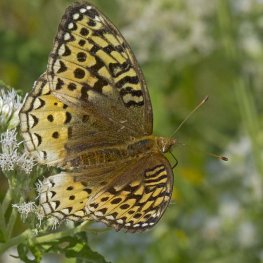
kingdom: Animalia
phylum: Arthropoda
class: Insecta
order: Lepidoptera
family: Nymphalidae
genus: Speyeria
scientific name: Speyeria cybele
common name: Great Spangled Fritillary
